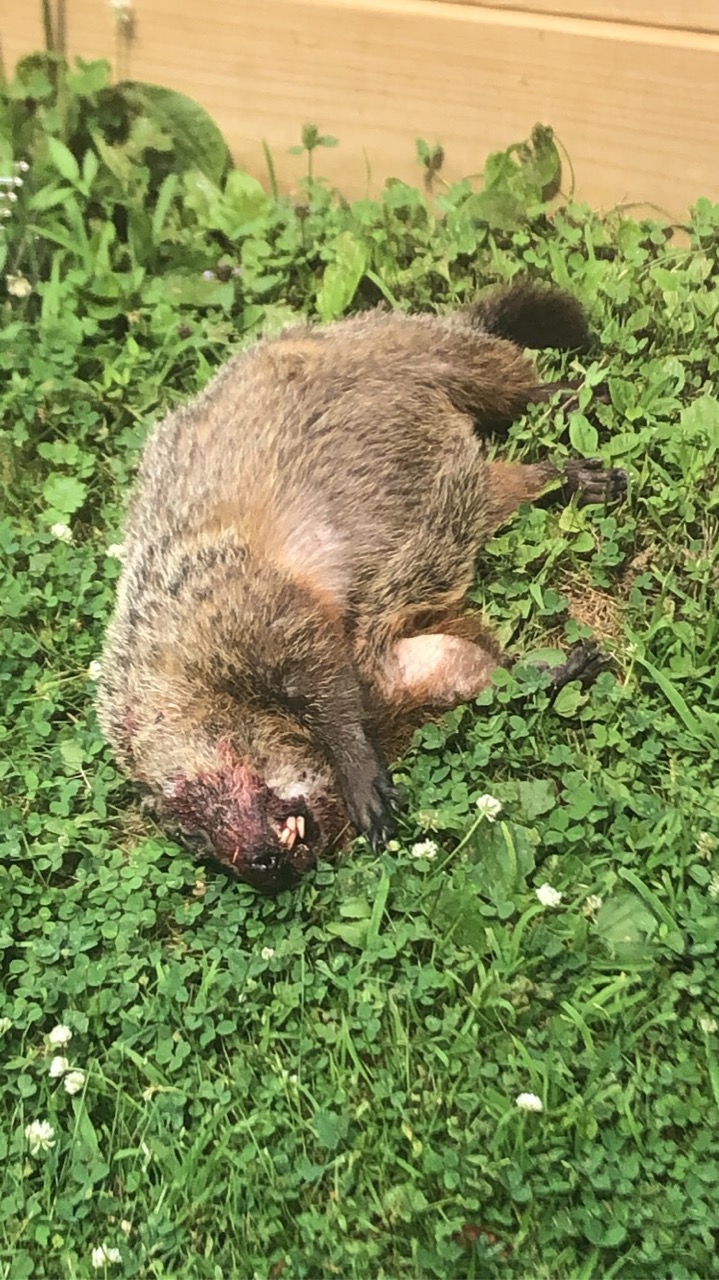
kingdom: Animalia
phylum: Chordata
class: Mammalia
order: Rodentia
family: Sciuridae
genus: Marmota
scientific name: Marmota monax
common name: Groundhog
